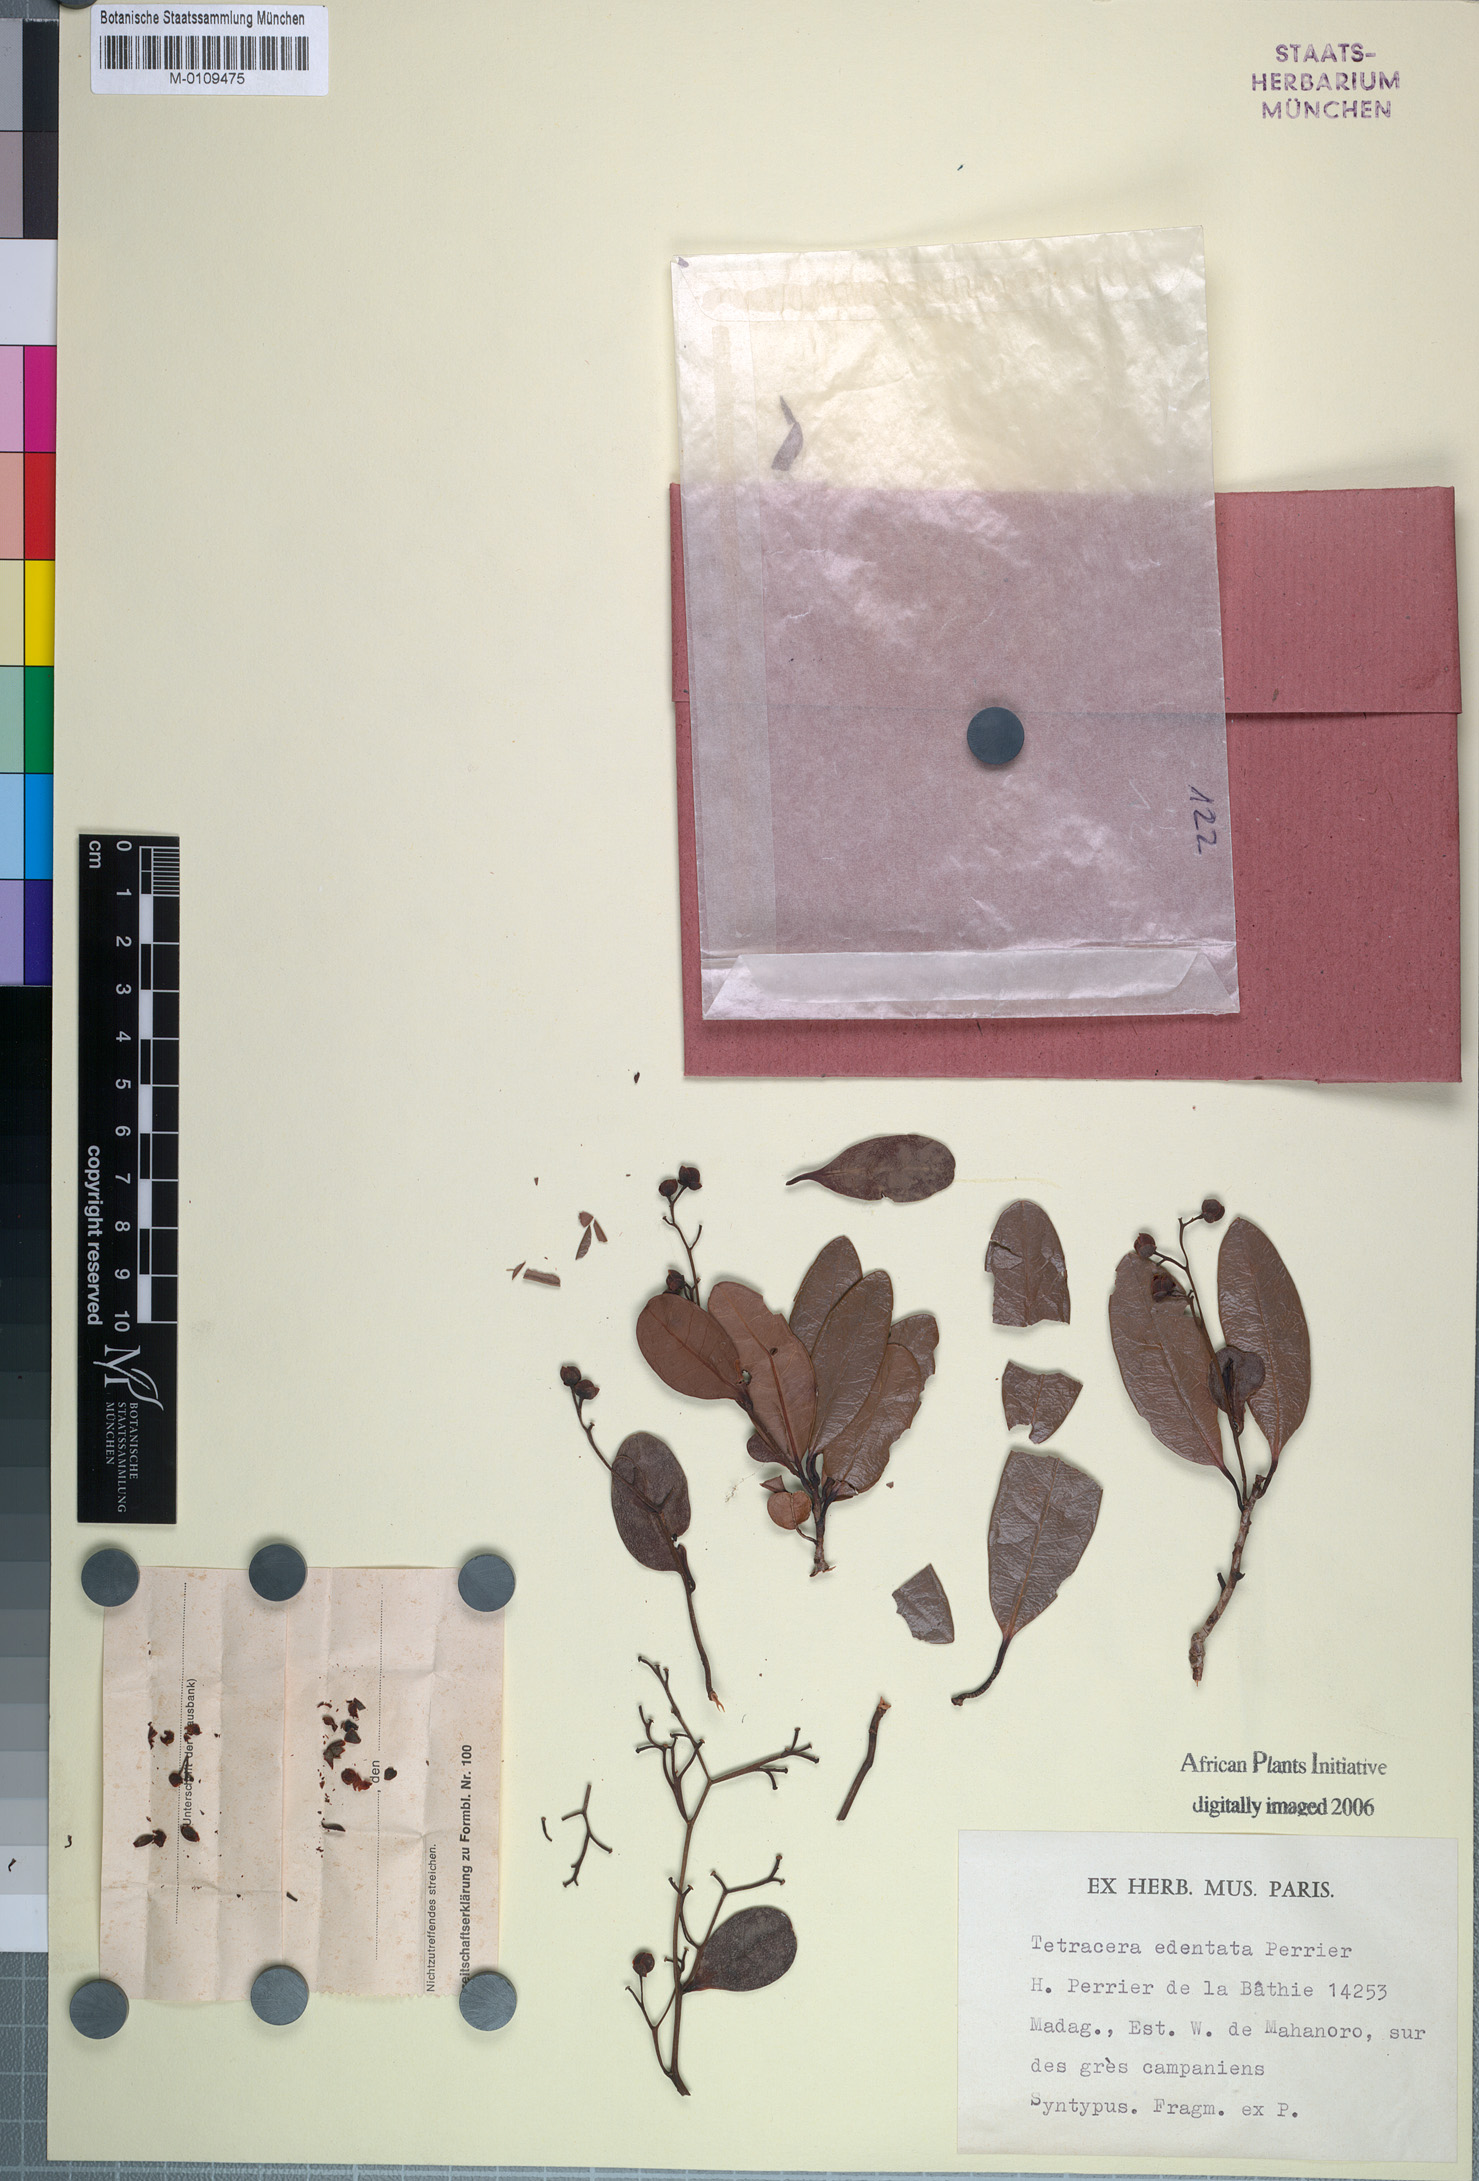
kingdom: Plantae
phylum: Tracheophyta
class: Magnoliopsida
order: Dilleniales
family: Dilleniaceae
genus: Tetracera
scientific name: Tetracera edentata
